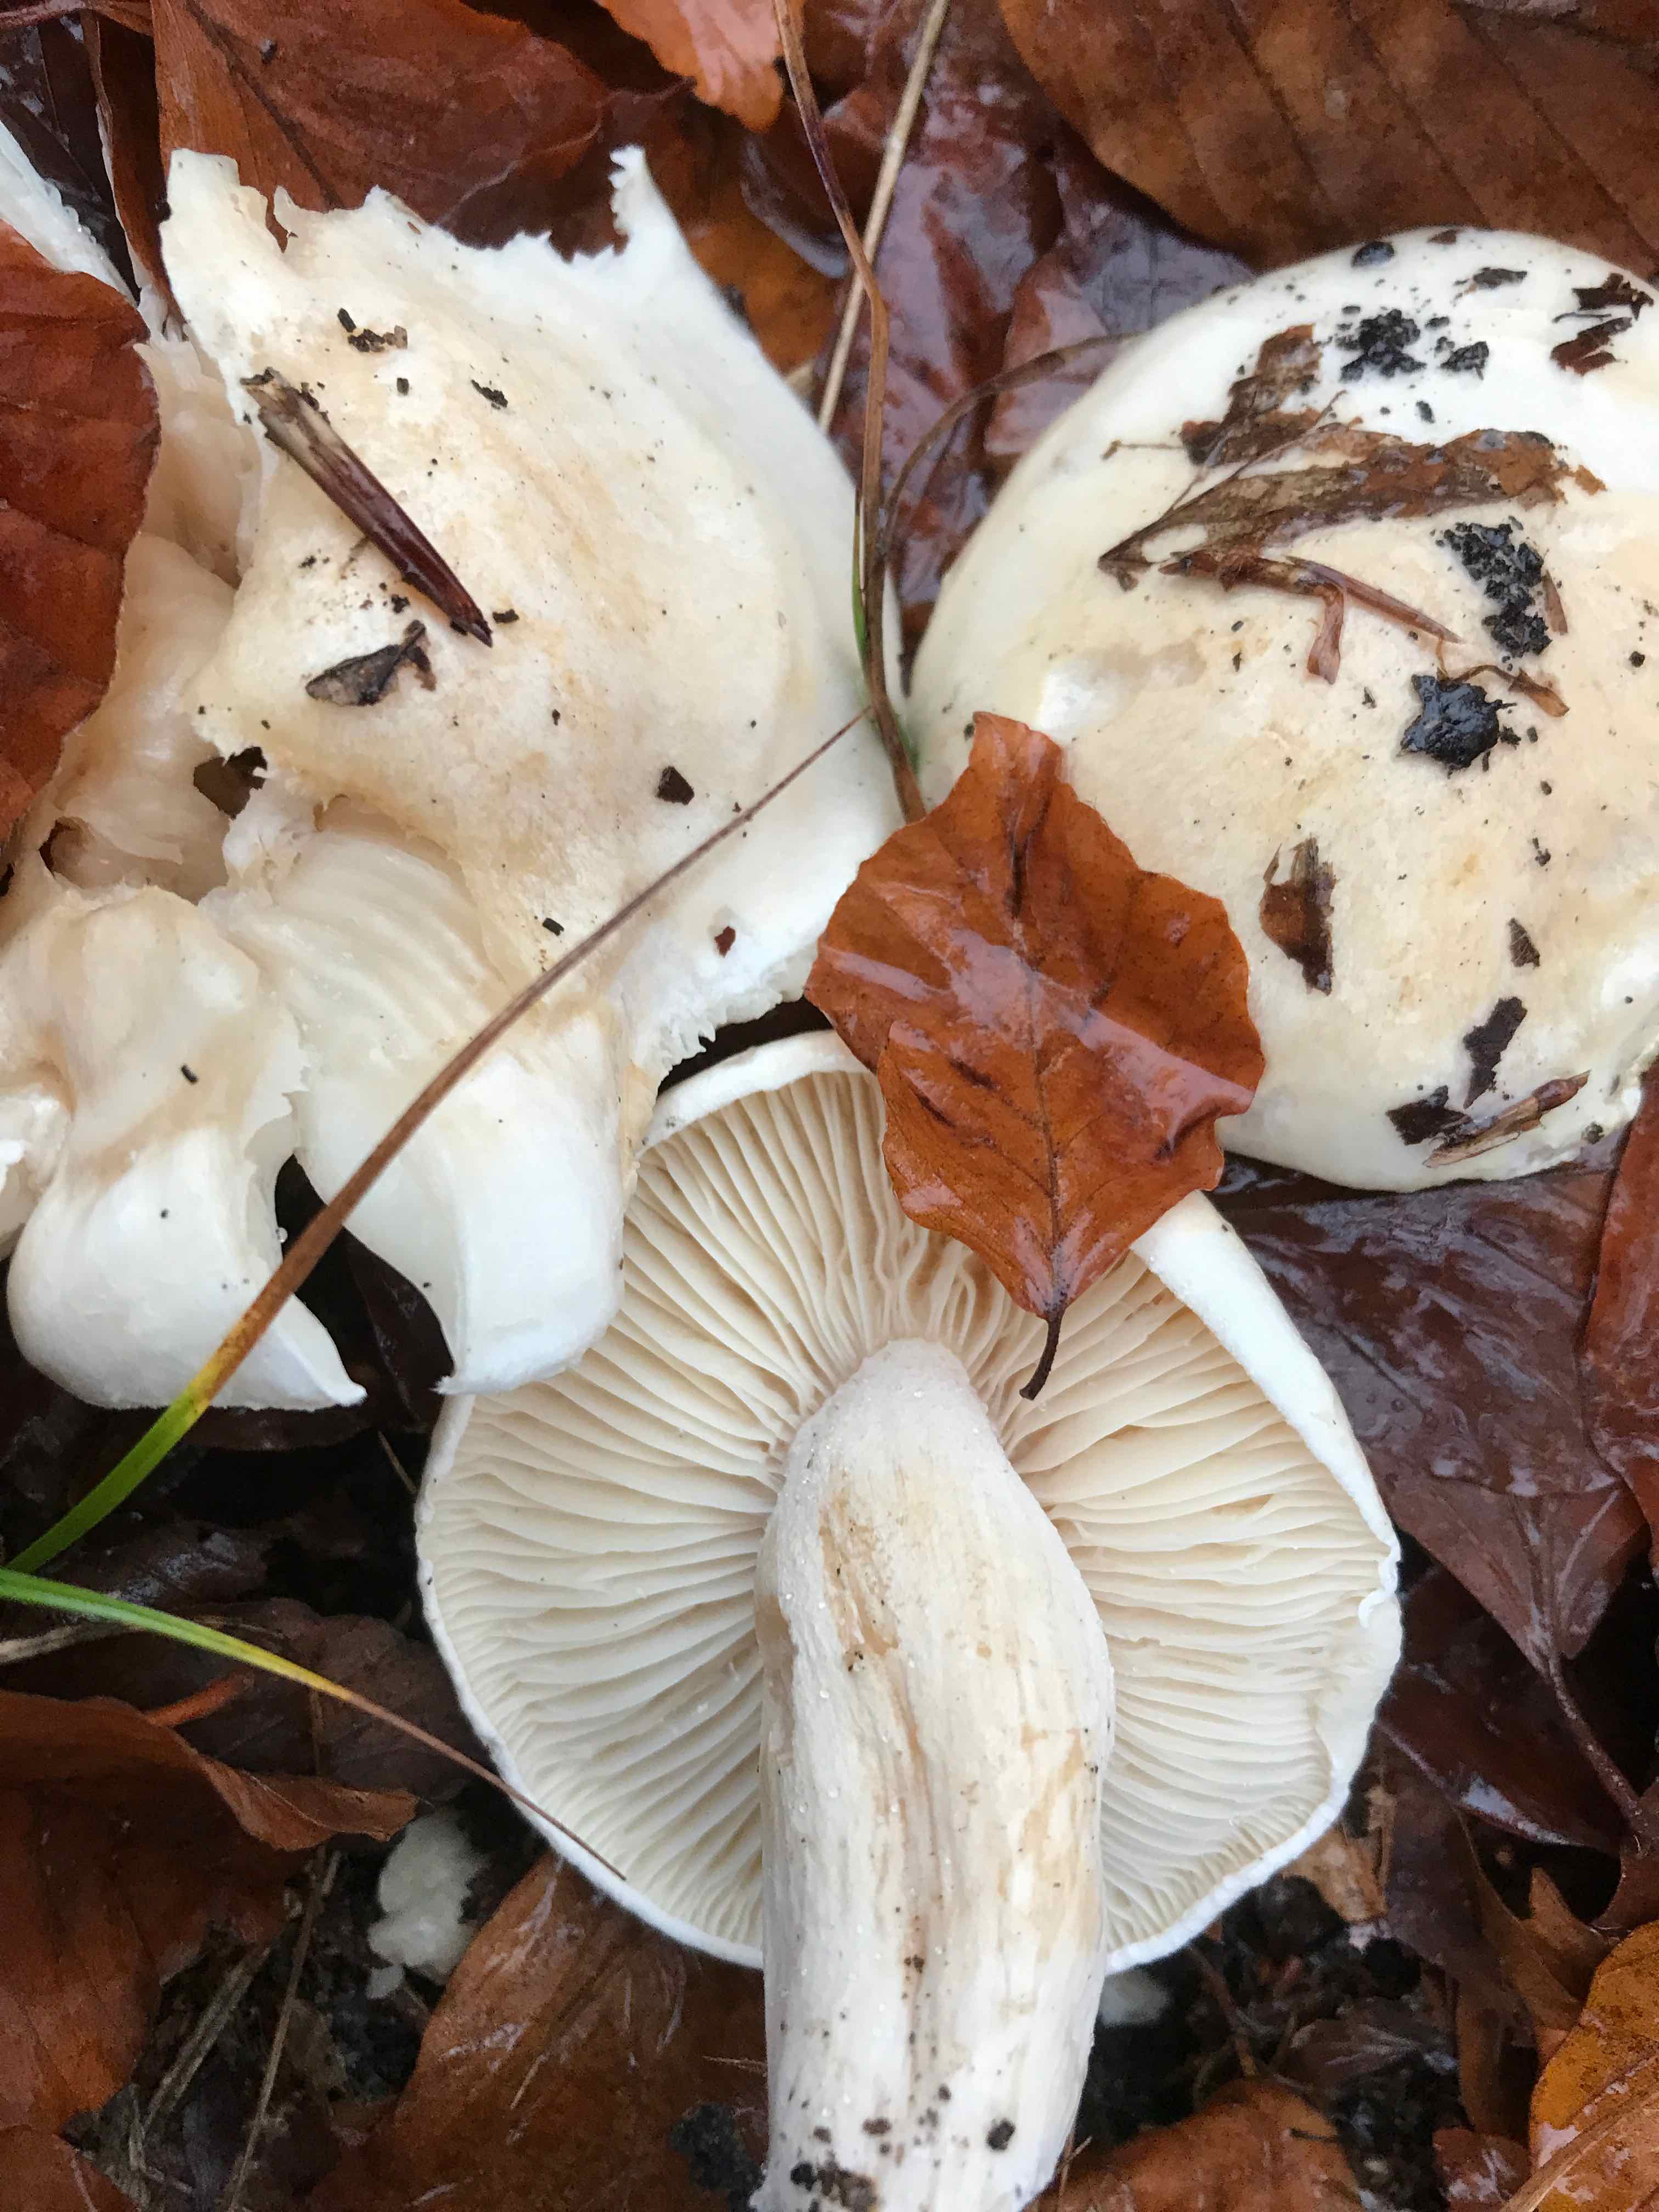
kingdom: Fungi
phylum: Basidiomycota
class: Agaricomycetes
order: Agaricales
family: Hygrophoraceae
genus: Hygrophorus
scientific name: Hygrophorus penarius
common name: spiselig sneglehat
